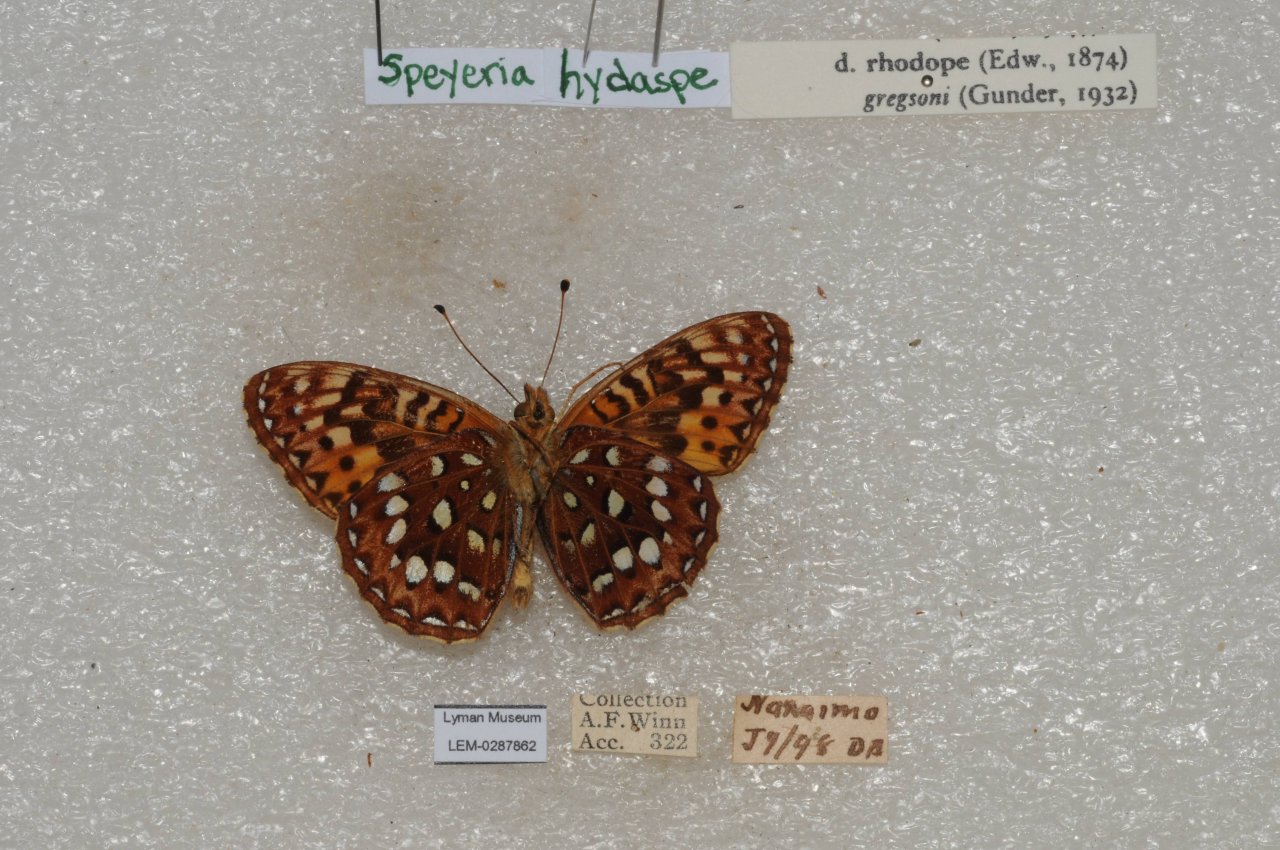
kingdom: Animalia
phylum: Arthropoda
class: Insecta
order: Lepidoptera
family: Nymphalidae
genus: Speyeria
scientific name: Speyeria hydaspe
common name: Hydaspe Fritillary
